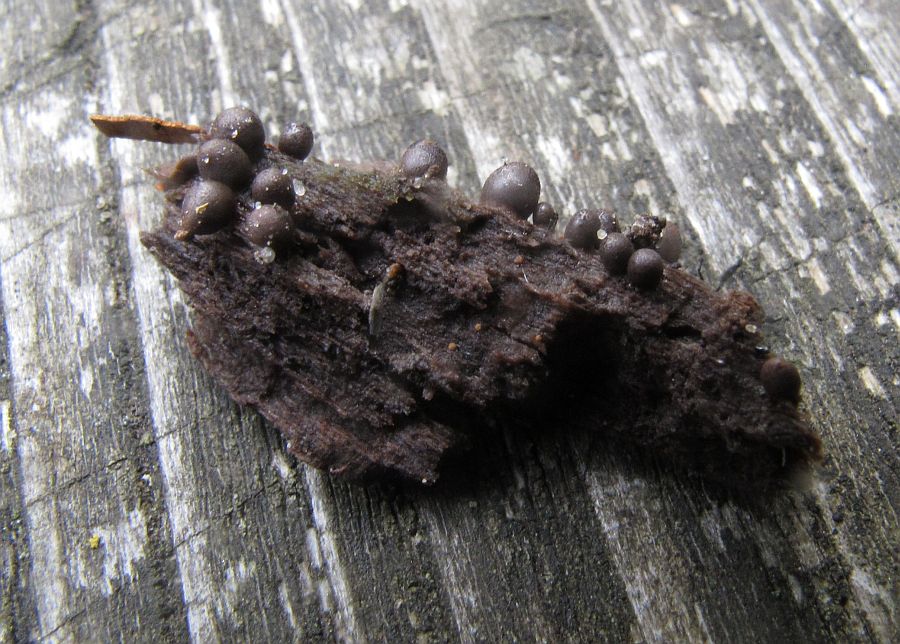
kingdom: Protozoa
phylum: Mycetozoa
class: Myxomycetes
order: Cribrariales
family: Tubiferaceae
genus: Lycogala
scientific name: Lycogala conicum
